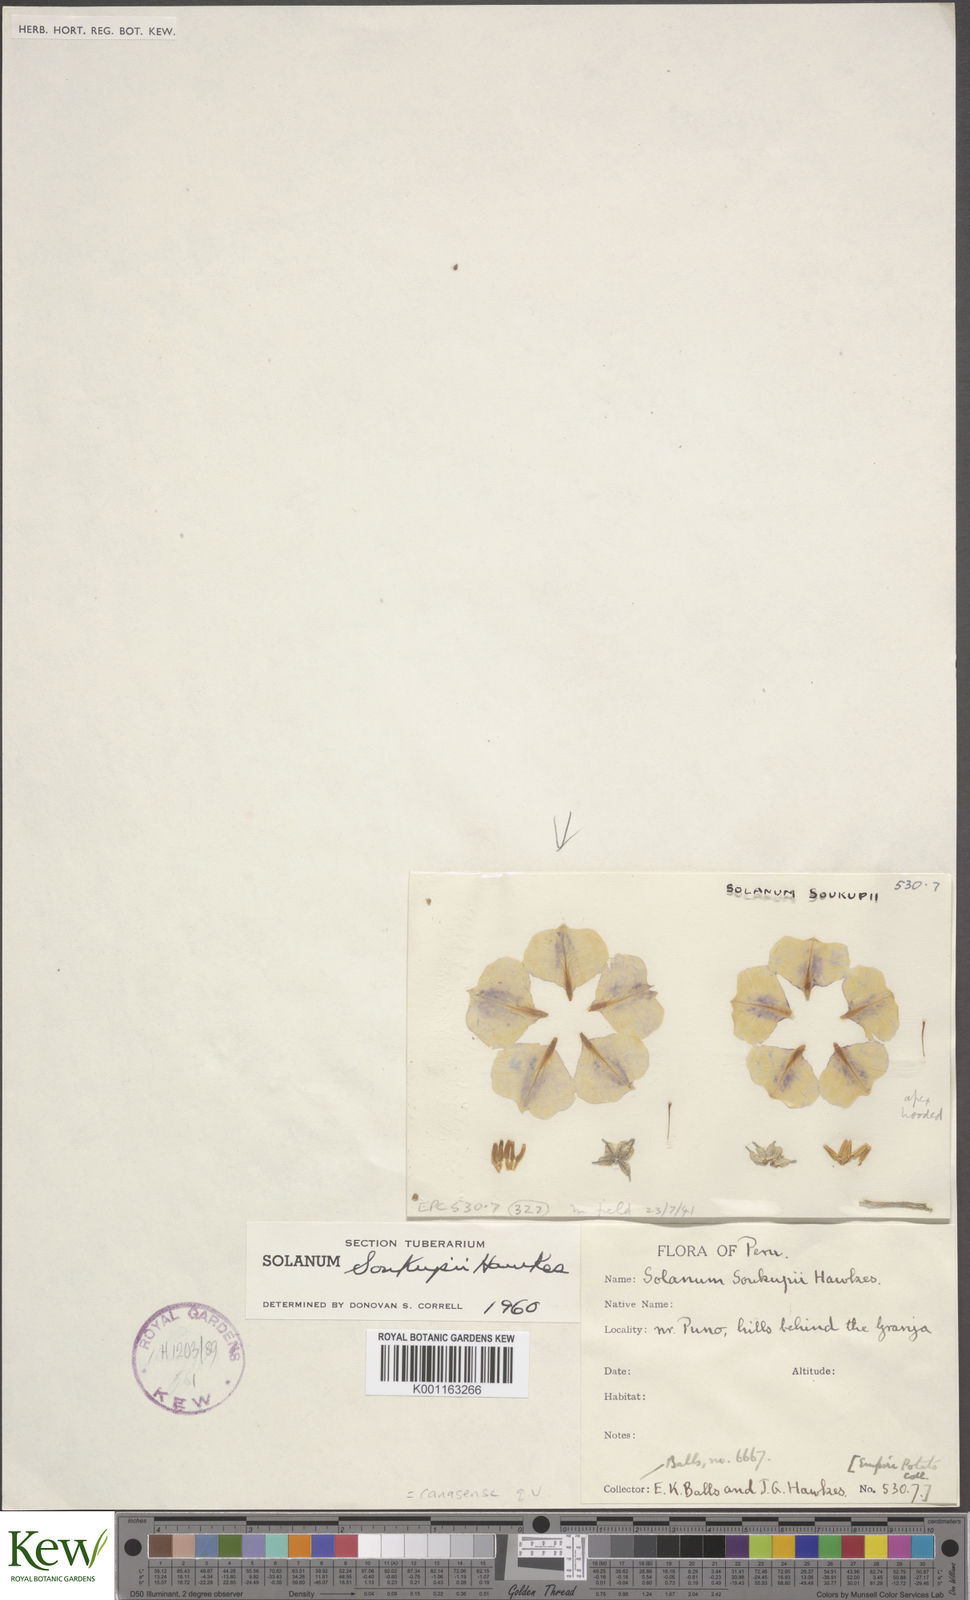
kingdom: Plantae
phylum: Tracheophyta
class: Magnoliopsida
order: Solanales
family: Solanaceae
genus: Solanum
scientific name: Solanum candolleanum
